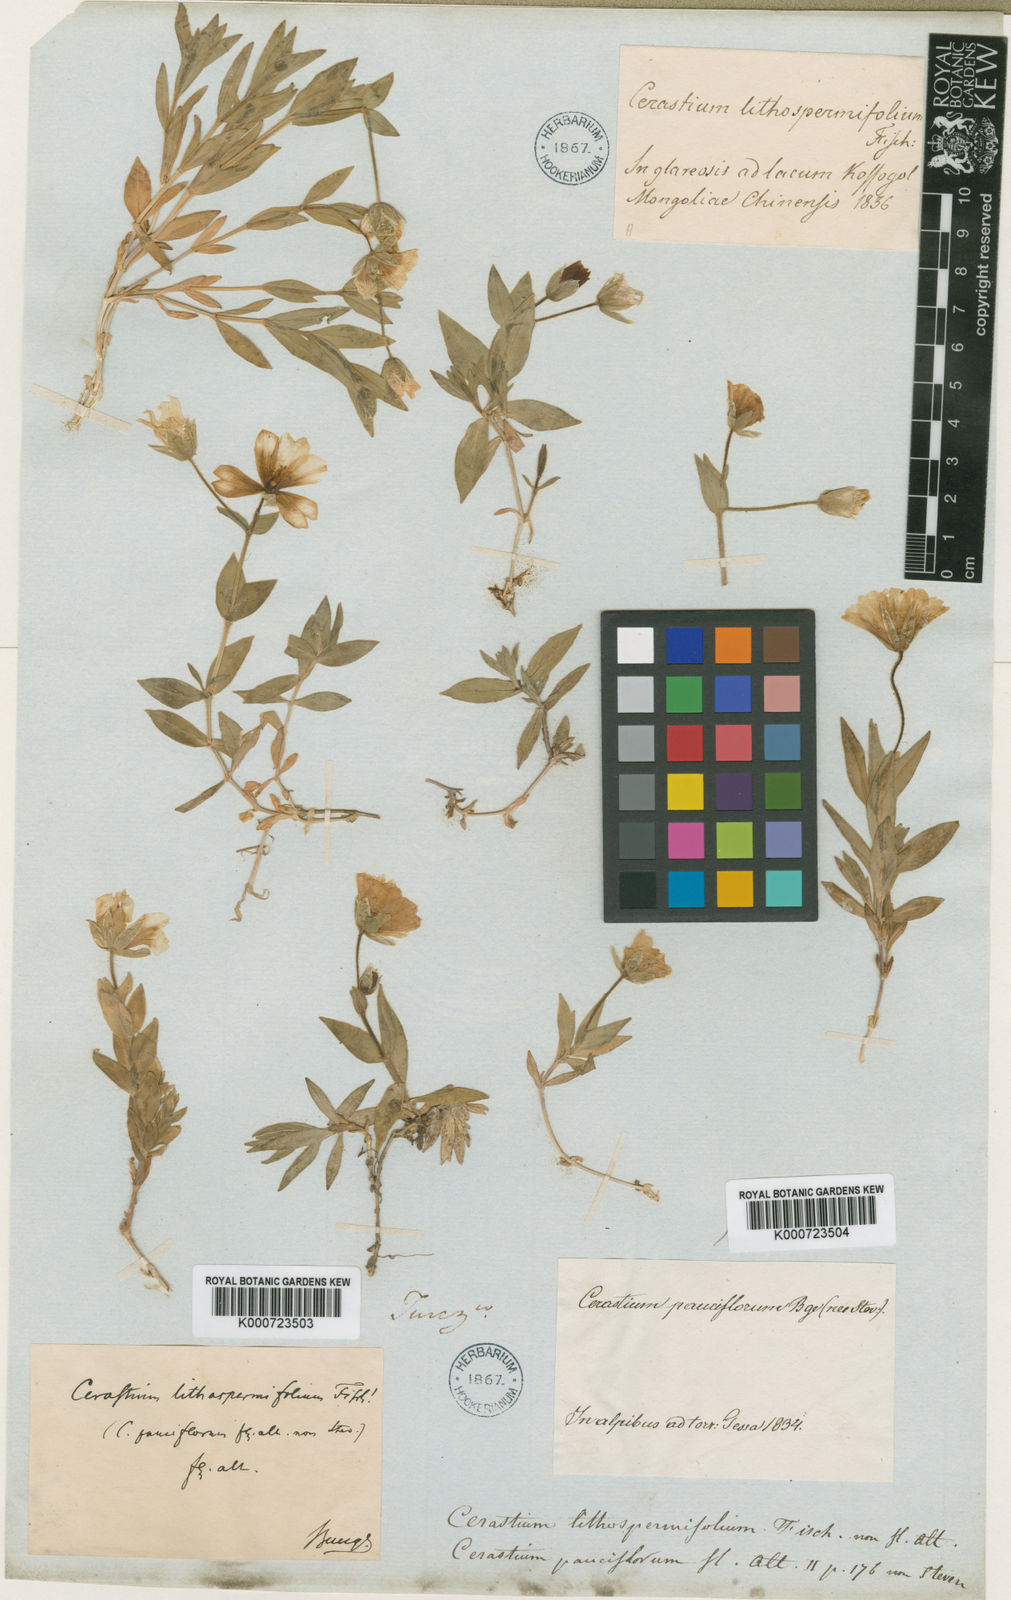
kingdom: Plantae
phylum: Tracheophyta
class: Magnoliopsida
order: Caryophyllales
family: Caryophyllaceae
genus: Cerastium
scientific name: Cerastium lithospermifolium
